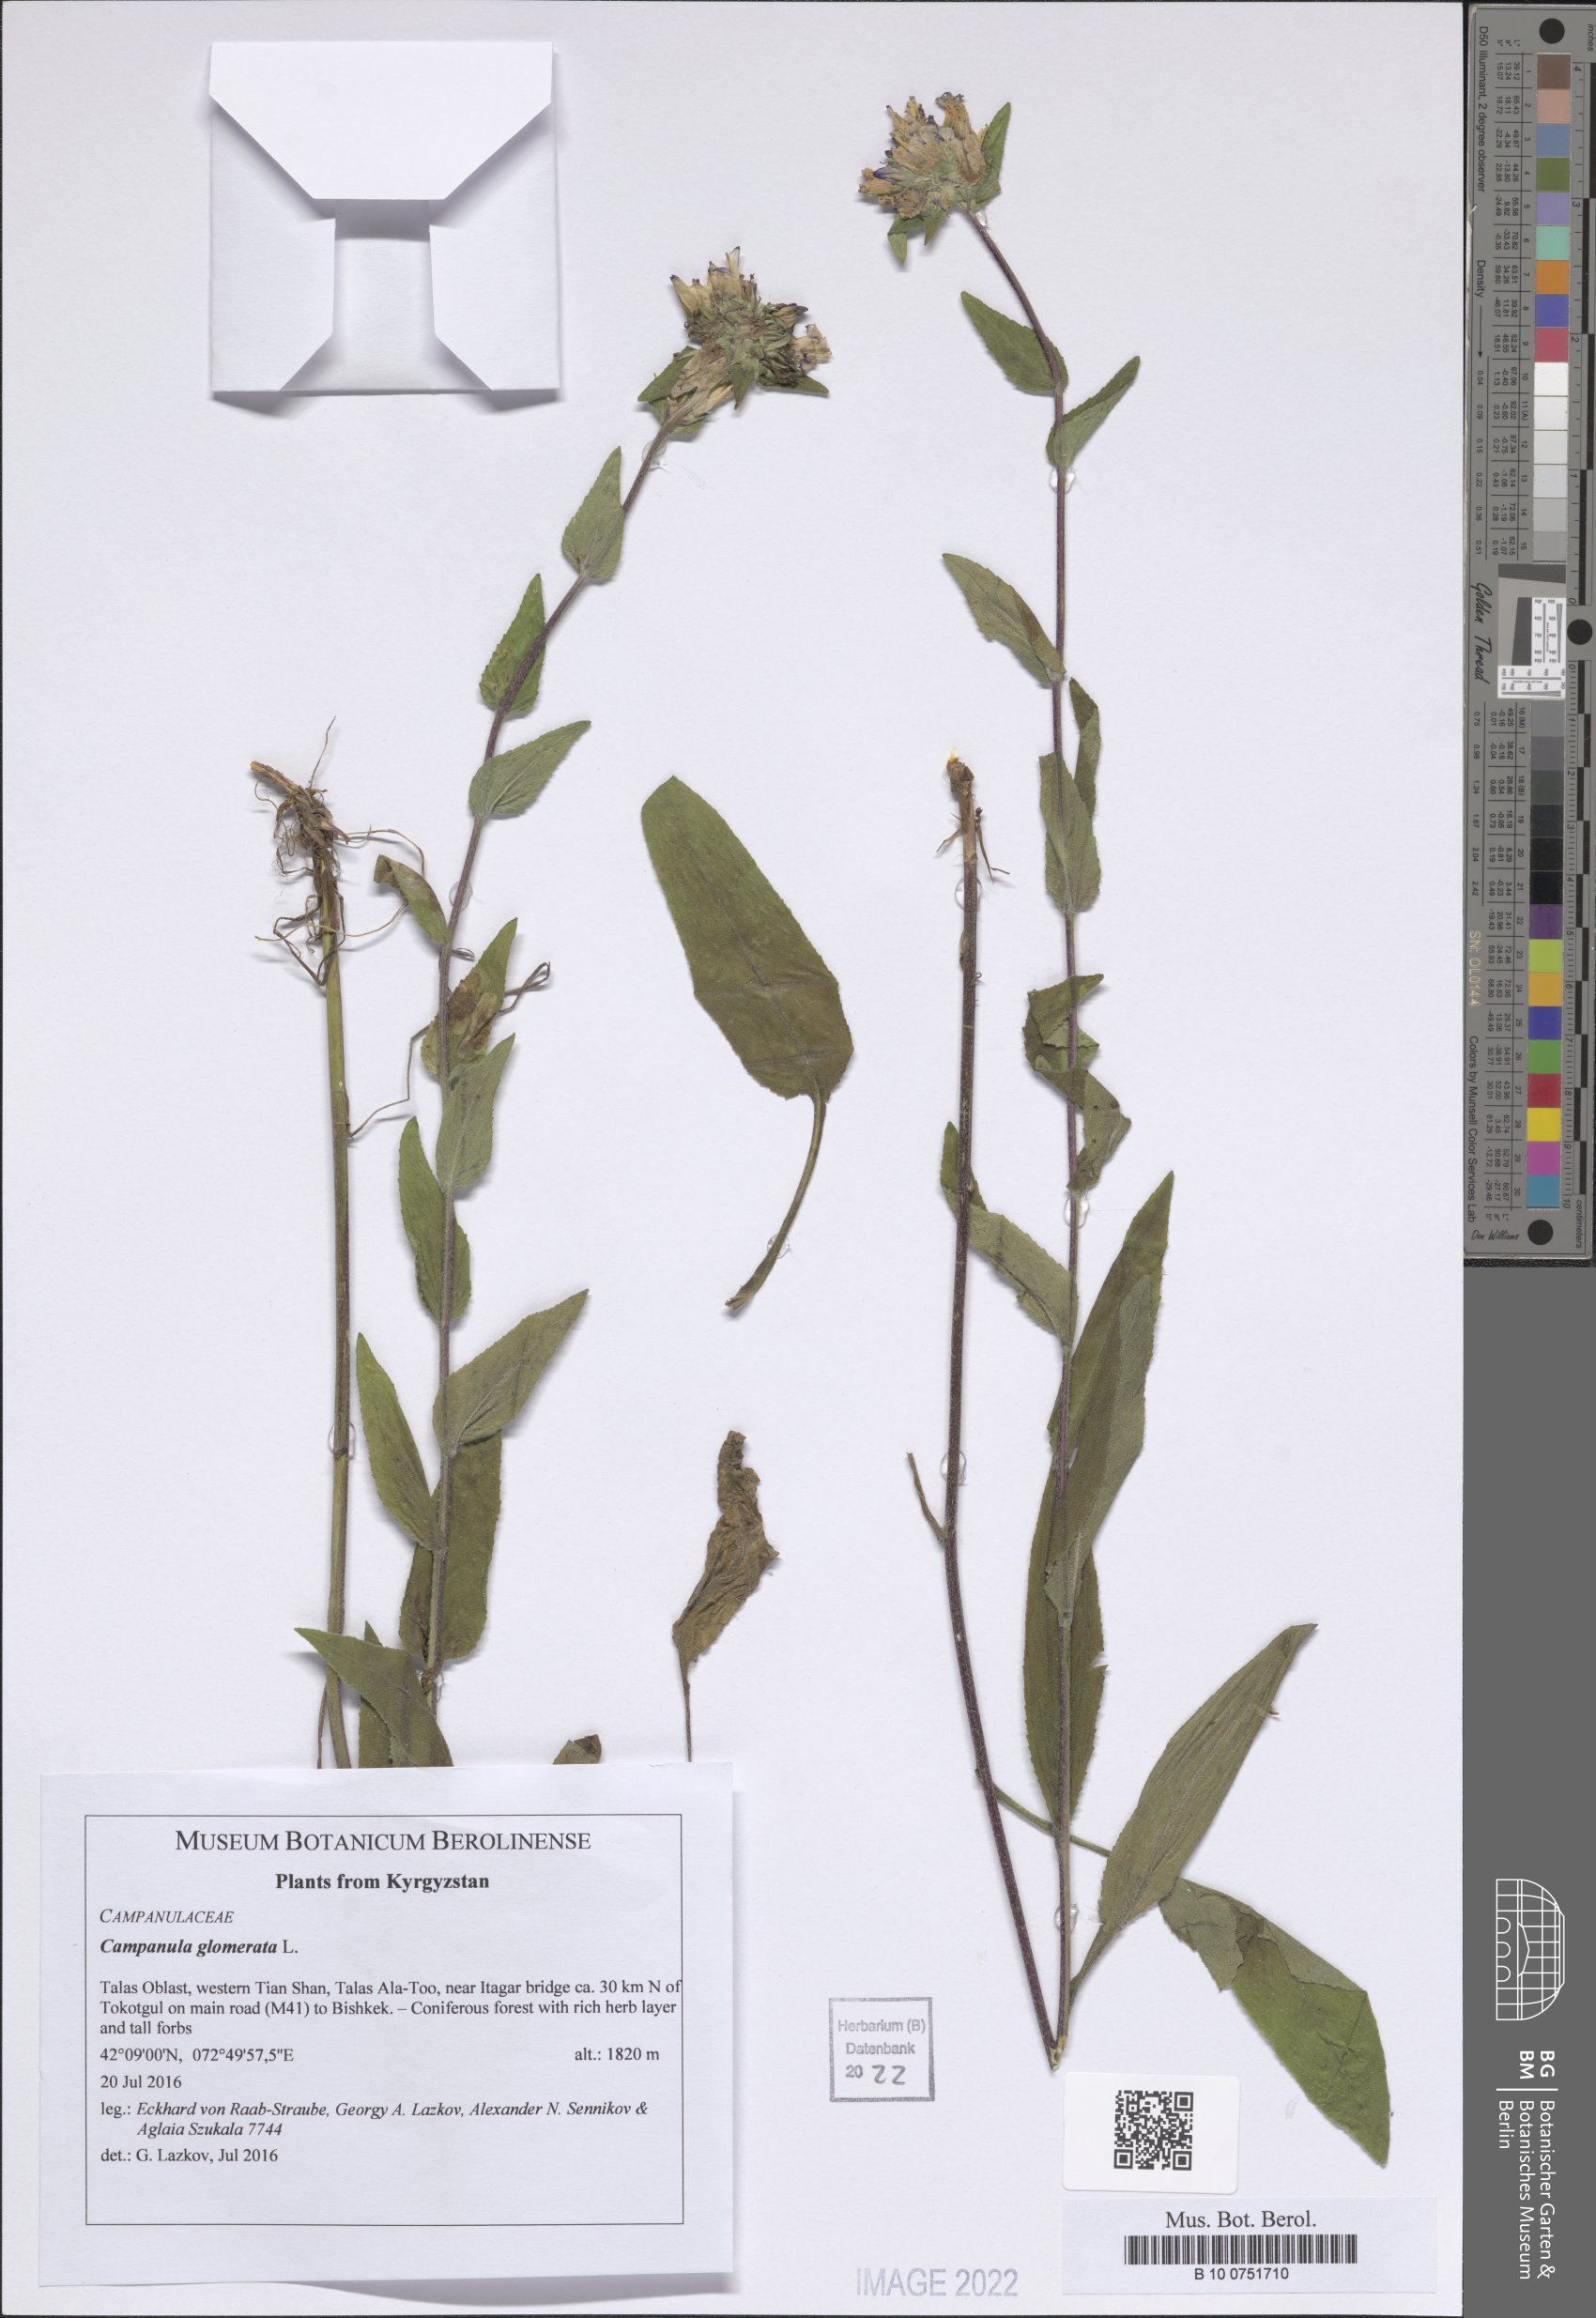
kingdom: Plantae
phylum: Tracheophyta
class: Magnoliopsida
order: Asterales
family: Campanulaceae
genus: Campanula
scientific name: Campanula glomerata
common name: Clustered bellflower
